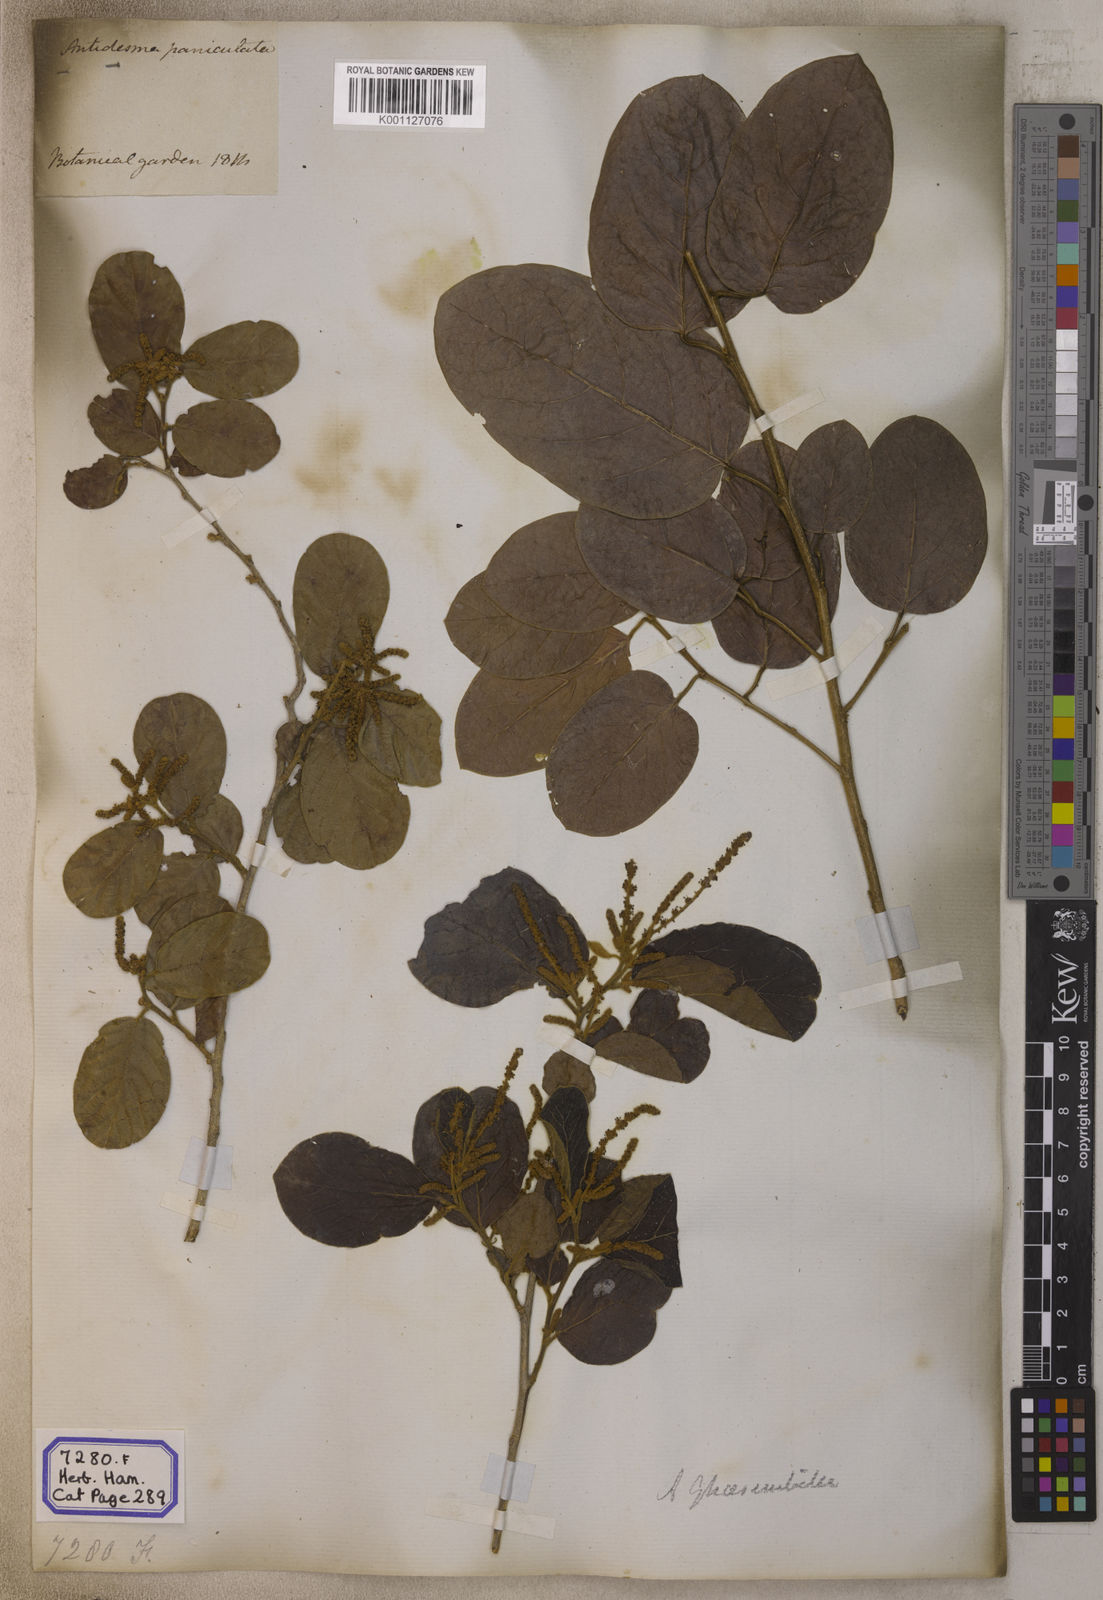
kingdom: Plantae
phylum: Tracheophyta
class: Magnoliopsida
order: Malpighiales
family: Phyllanthaceae
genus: Antidesma
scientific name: Antidesma
